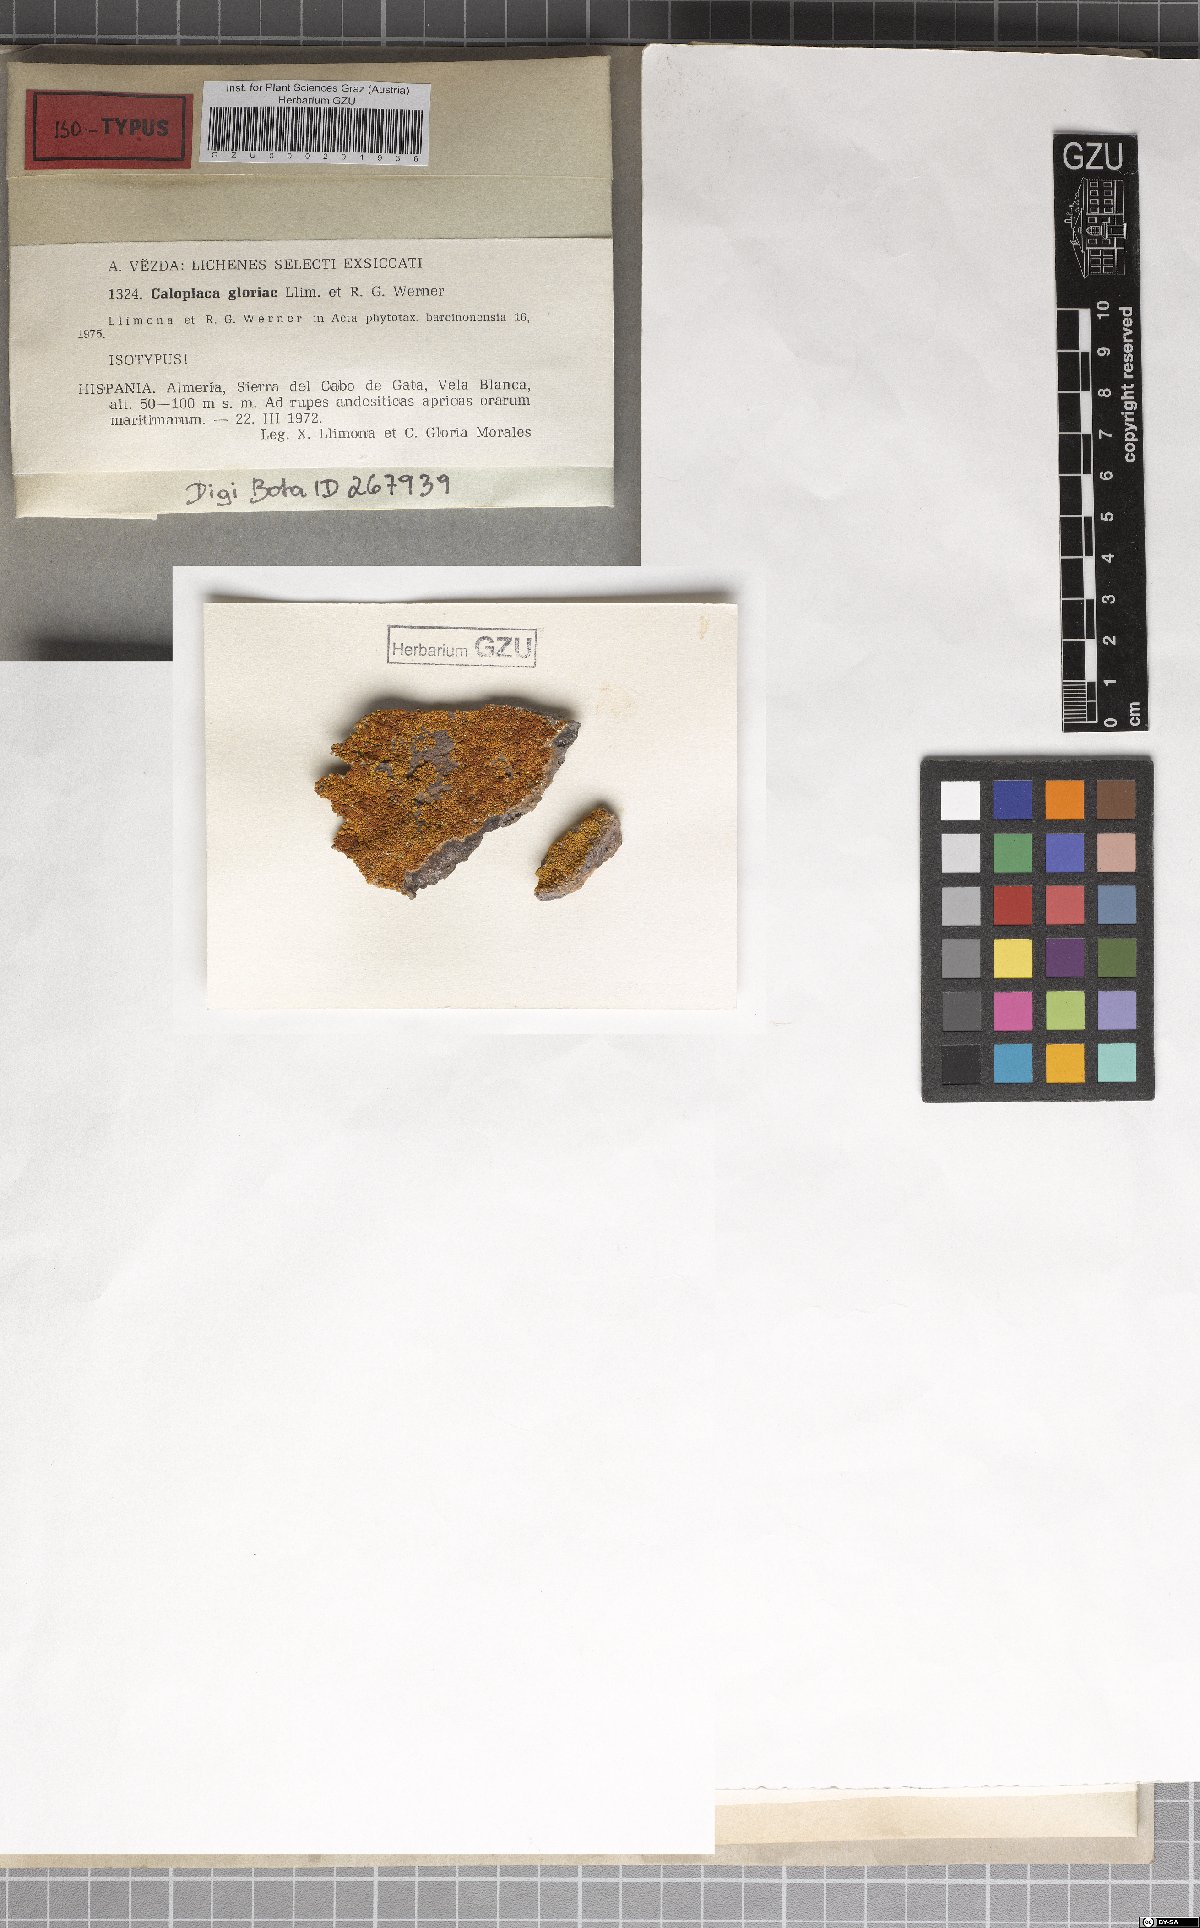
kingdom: Fungi
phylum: Ascomycota
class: Lecanoromycetes
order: Teloschistales
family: Teloschistaceae
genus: Elenkiniana
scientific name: Elenkiniana gloriae
